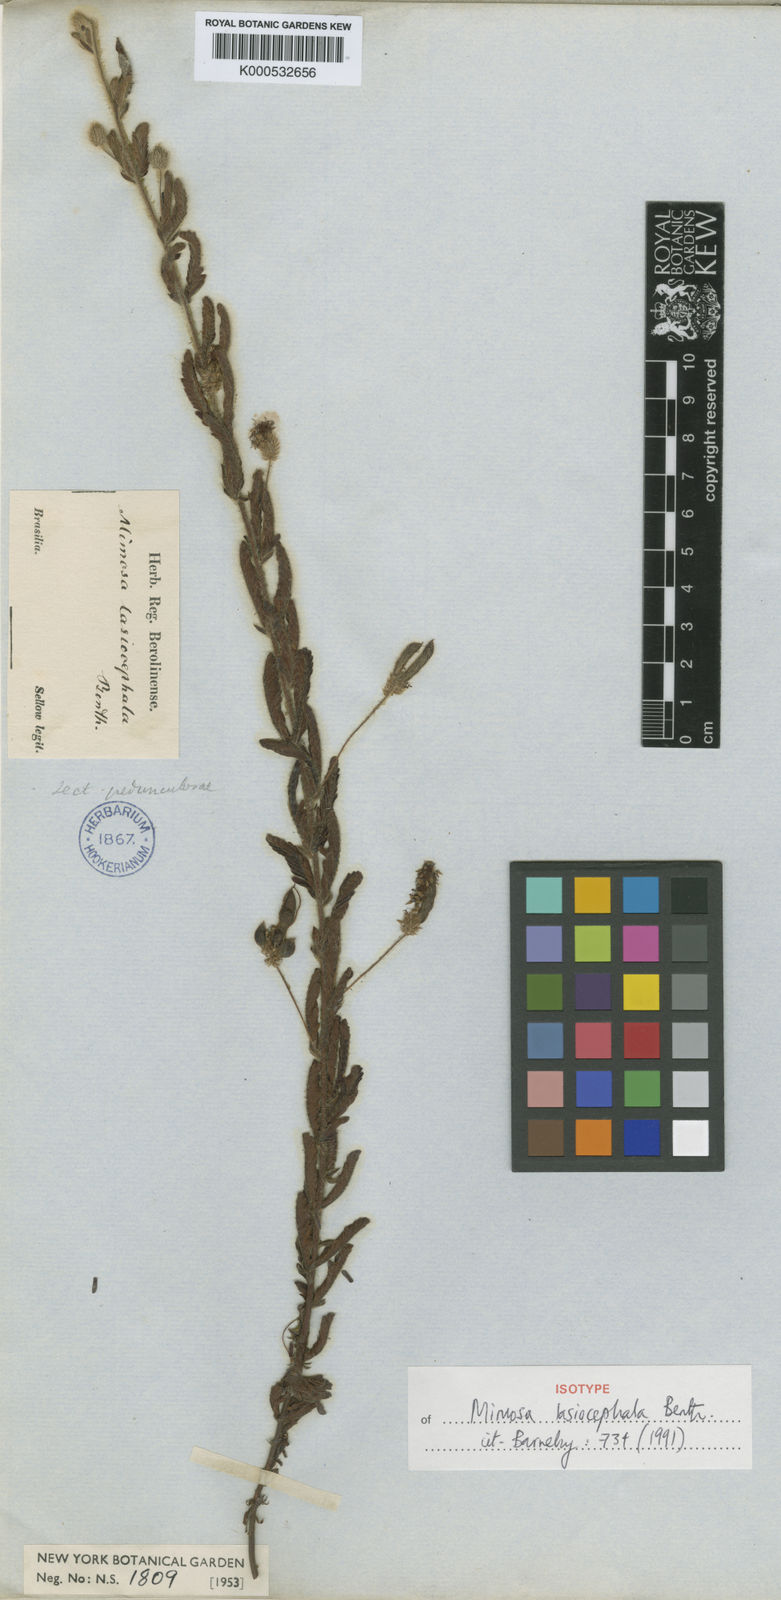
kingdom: Plantae
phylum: Tracheophyta
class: Magnoliopsida
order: Fabales
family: Fabaceae
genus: Mimosa
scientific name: Mimosa lasiocephala
